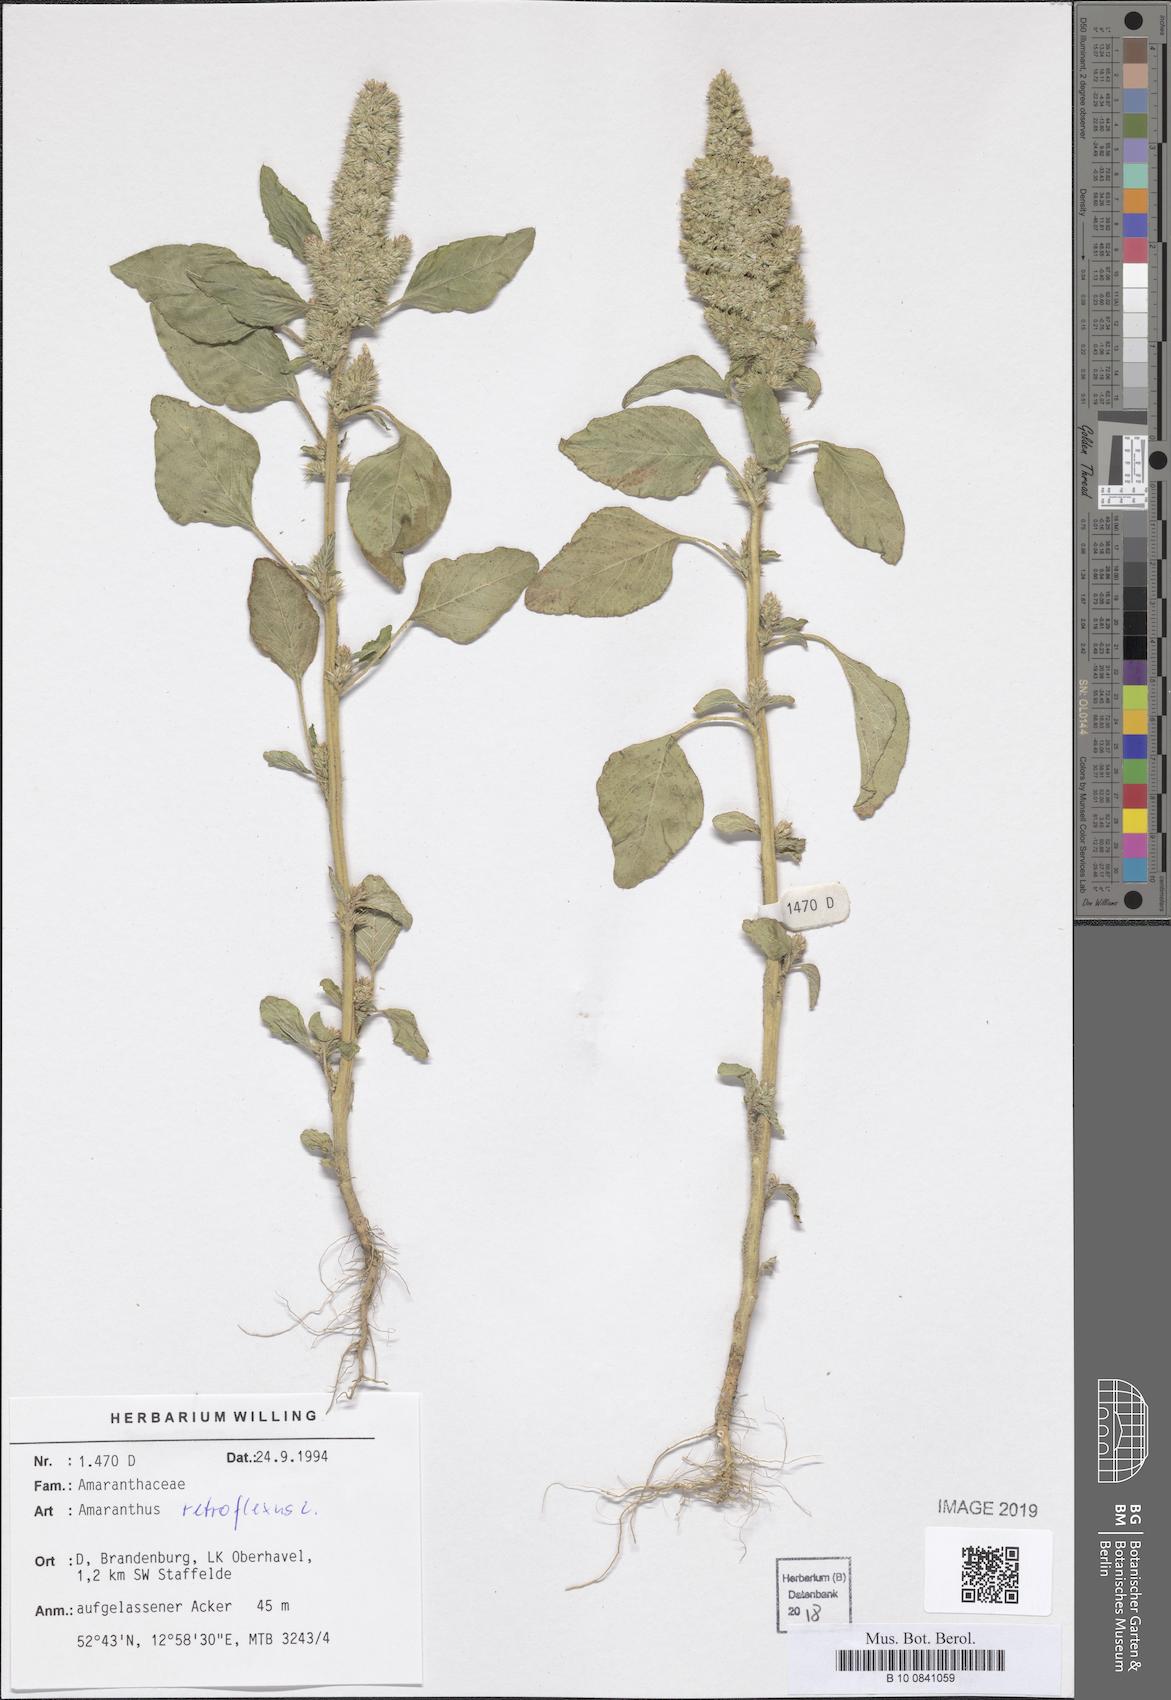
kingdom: Plantae
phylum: Tracheophyta
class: Magnoliopsida
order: Caryophyllales
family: Amaranthaceae
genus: Amaranthus
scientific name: Amaranthus retroflexus
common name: Redroot amaranth
